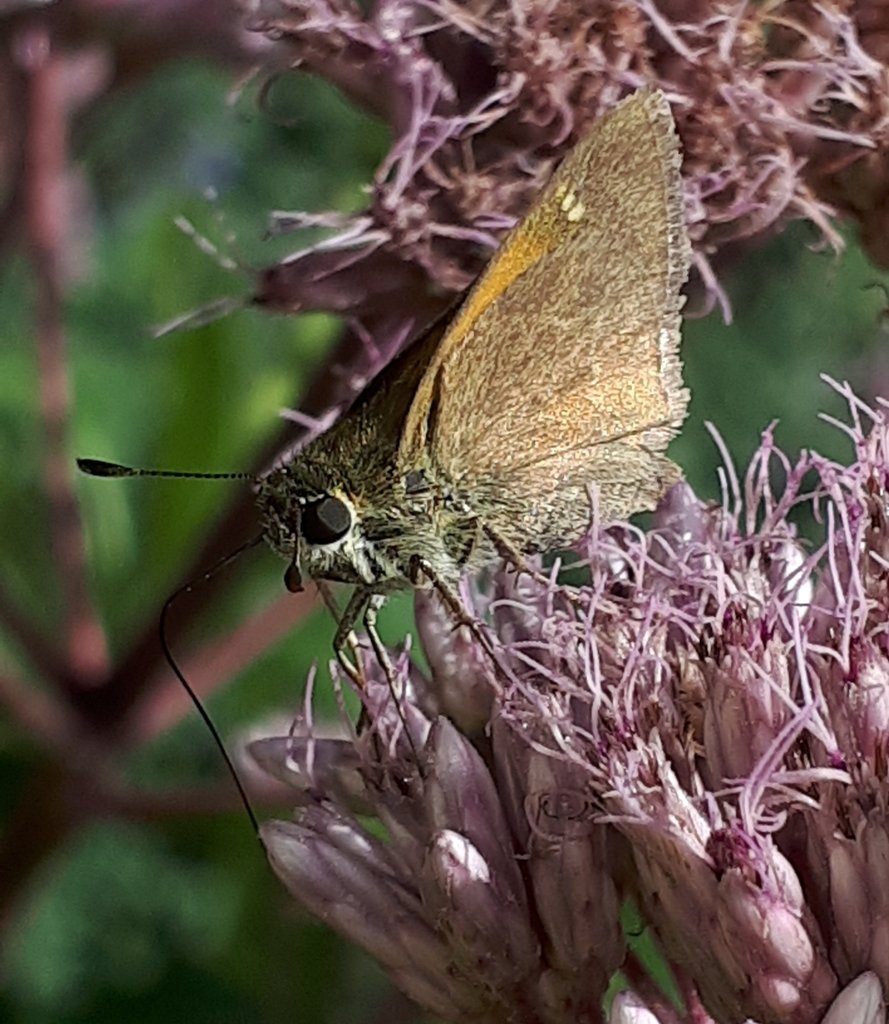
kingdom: Animalia
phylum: Arthropoda
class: Insecta
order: Lepidoptera
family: Hesperiidae
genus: Polites
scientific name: Polites themistocles
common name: Tawny-edged Skipper
